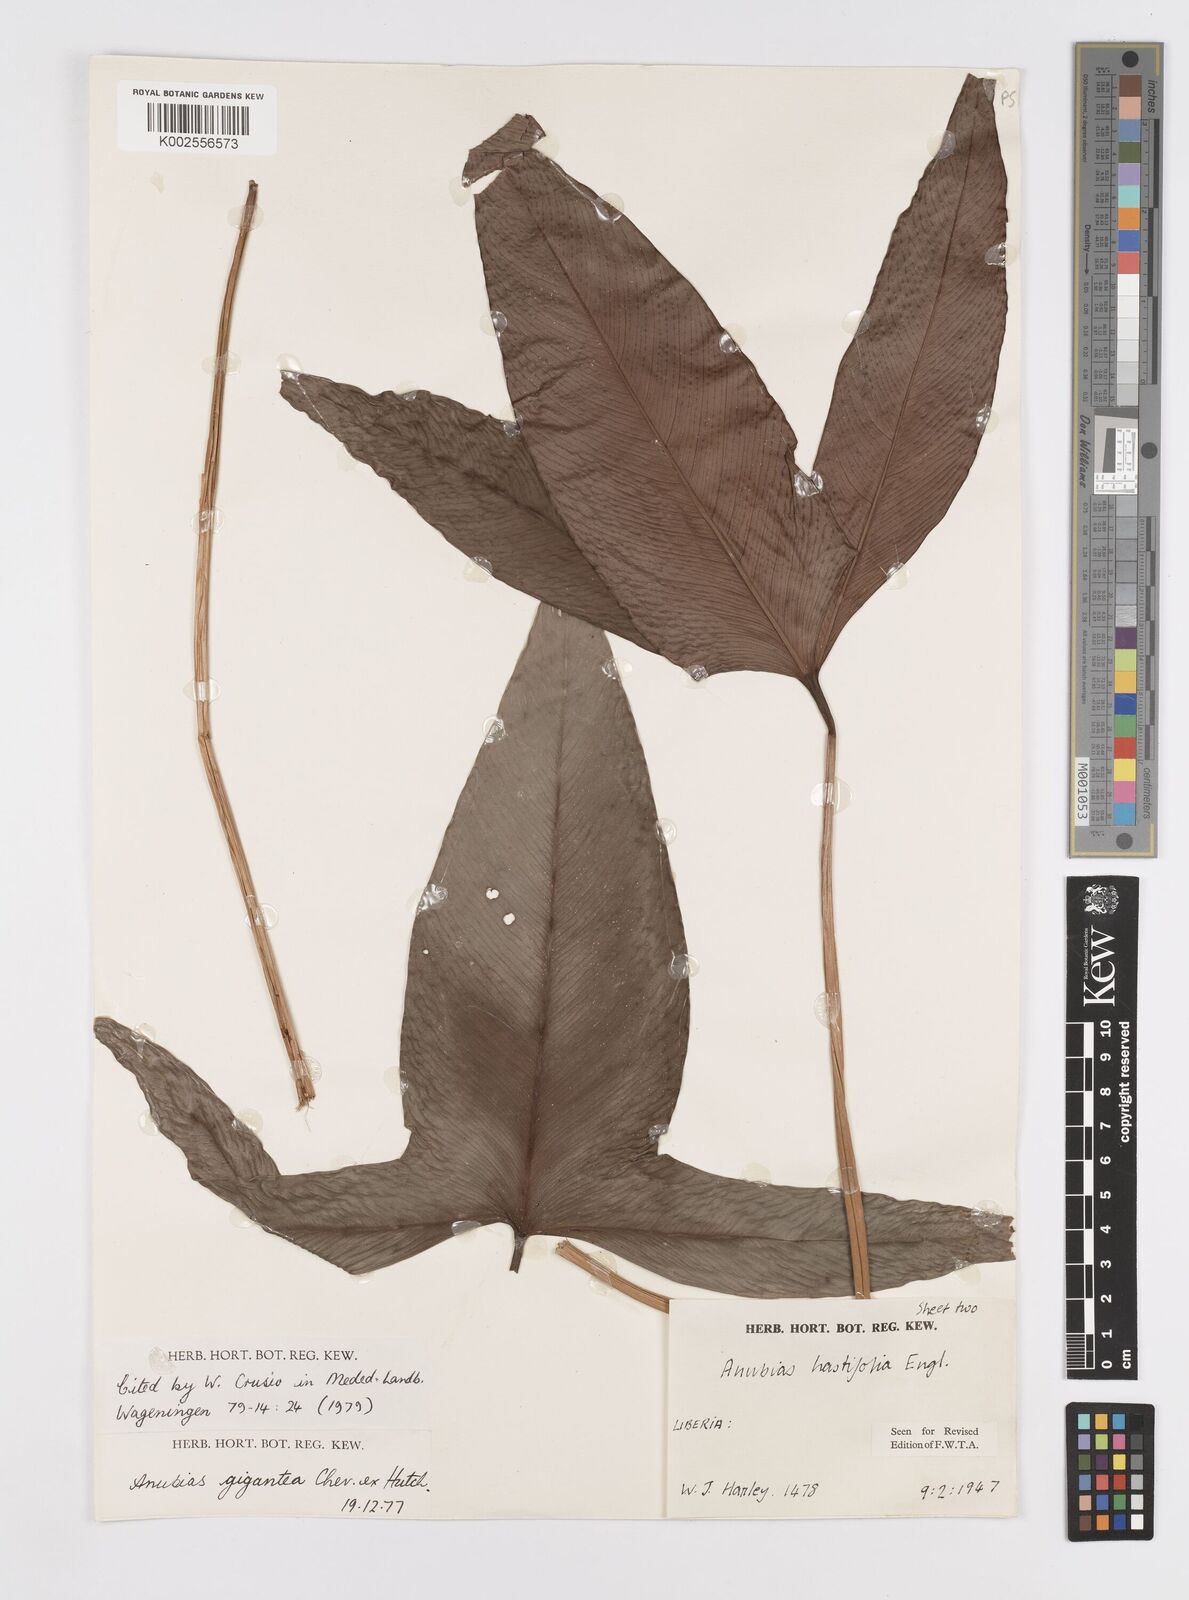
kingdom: Plantae
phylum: Tracheophyta
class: Liliopsida
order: Alismatales
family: Araceae
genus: Anubias
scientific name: Anubias gigantea
